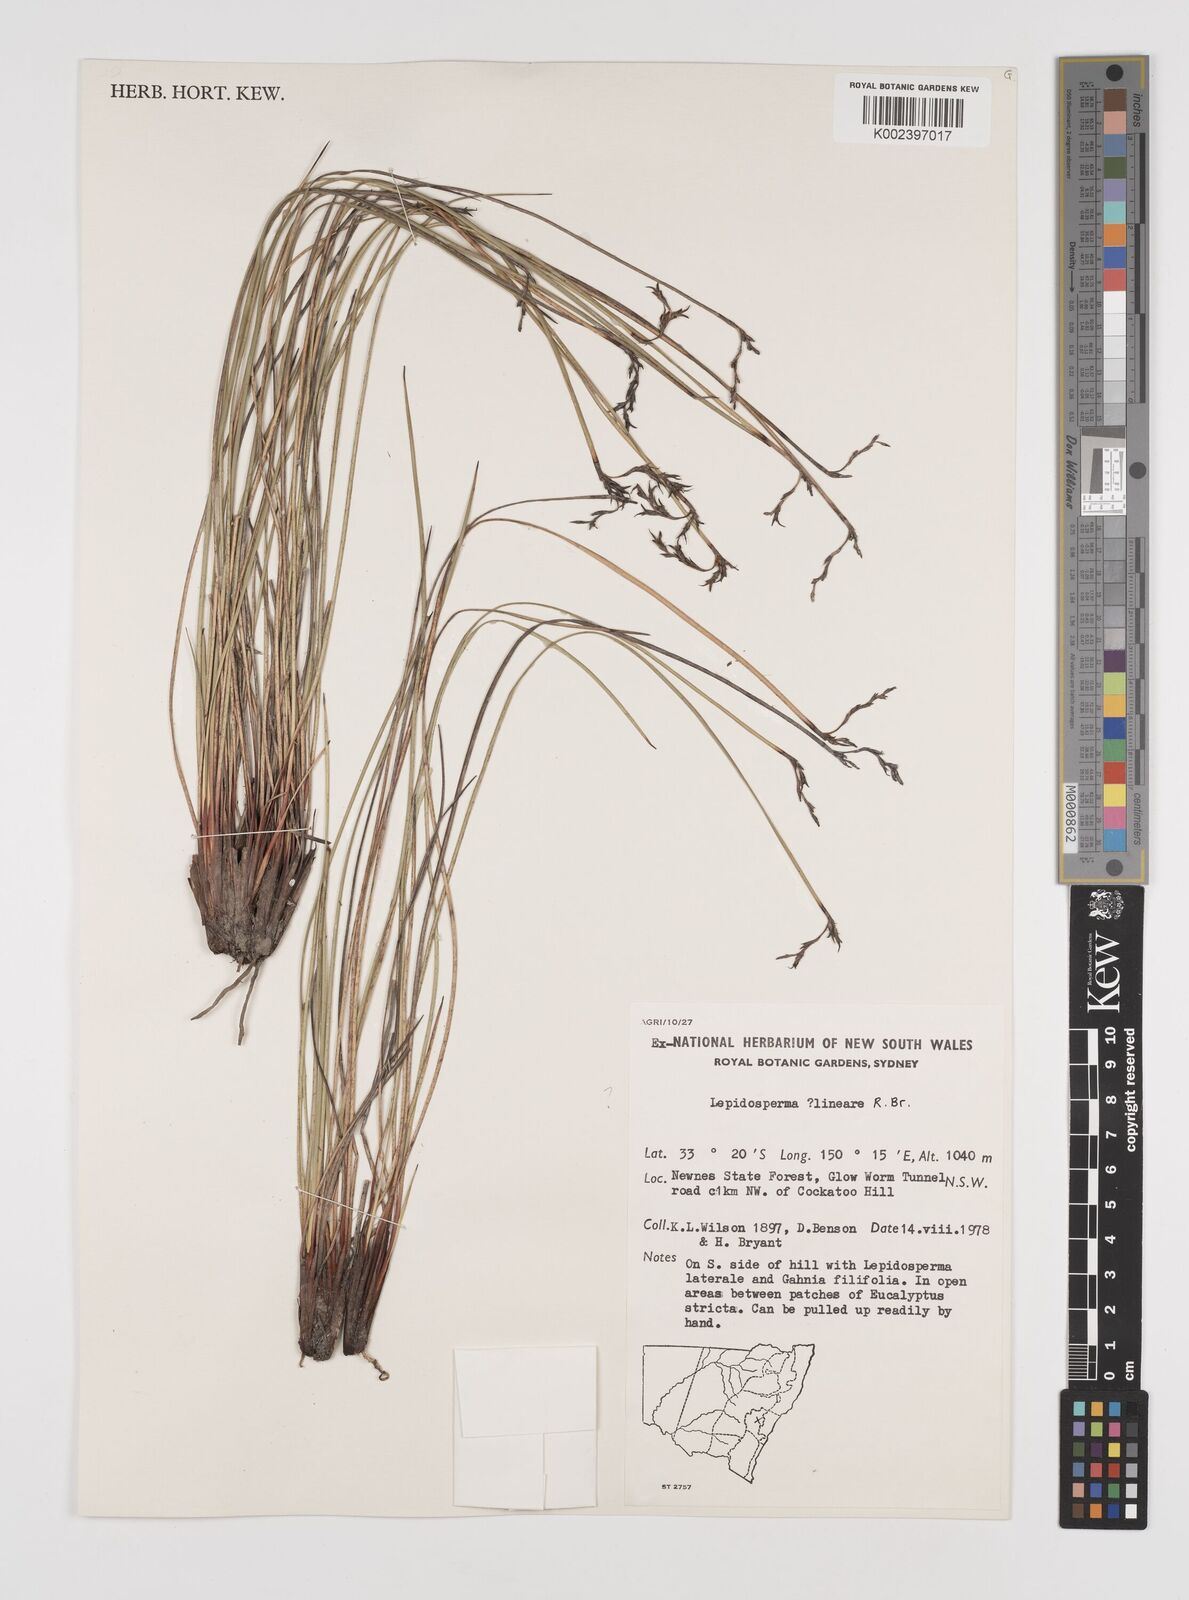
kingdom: Plantae
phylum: Tracheophyta
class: Liliopsida
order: Poales
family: Cyperaceae
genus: Lepidosperma
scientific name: Lepidosperma lineare
